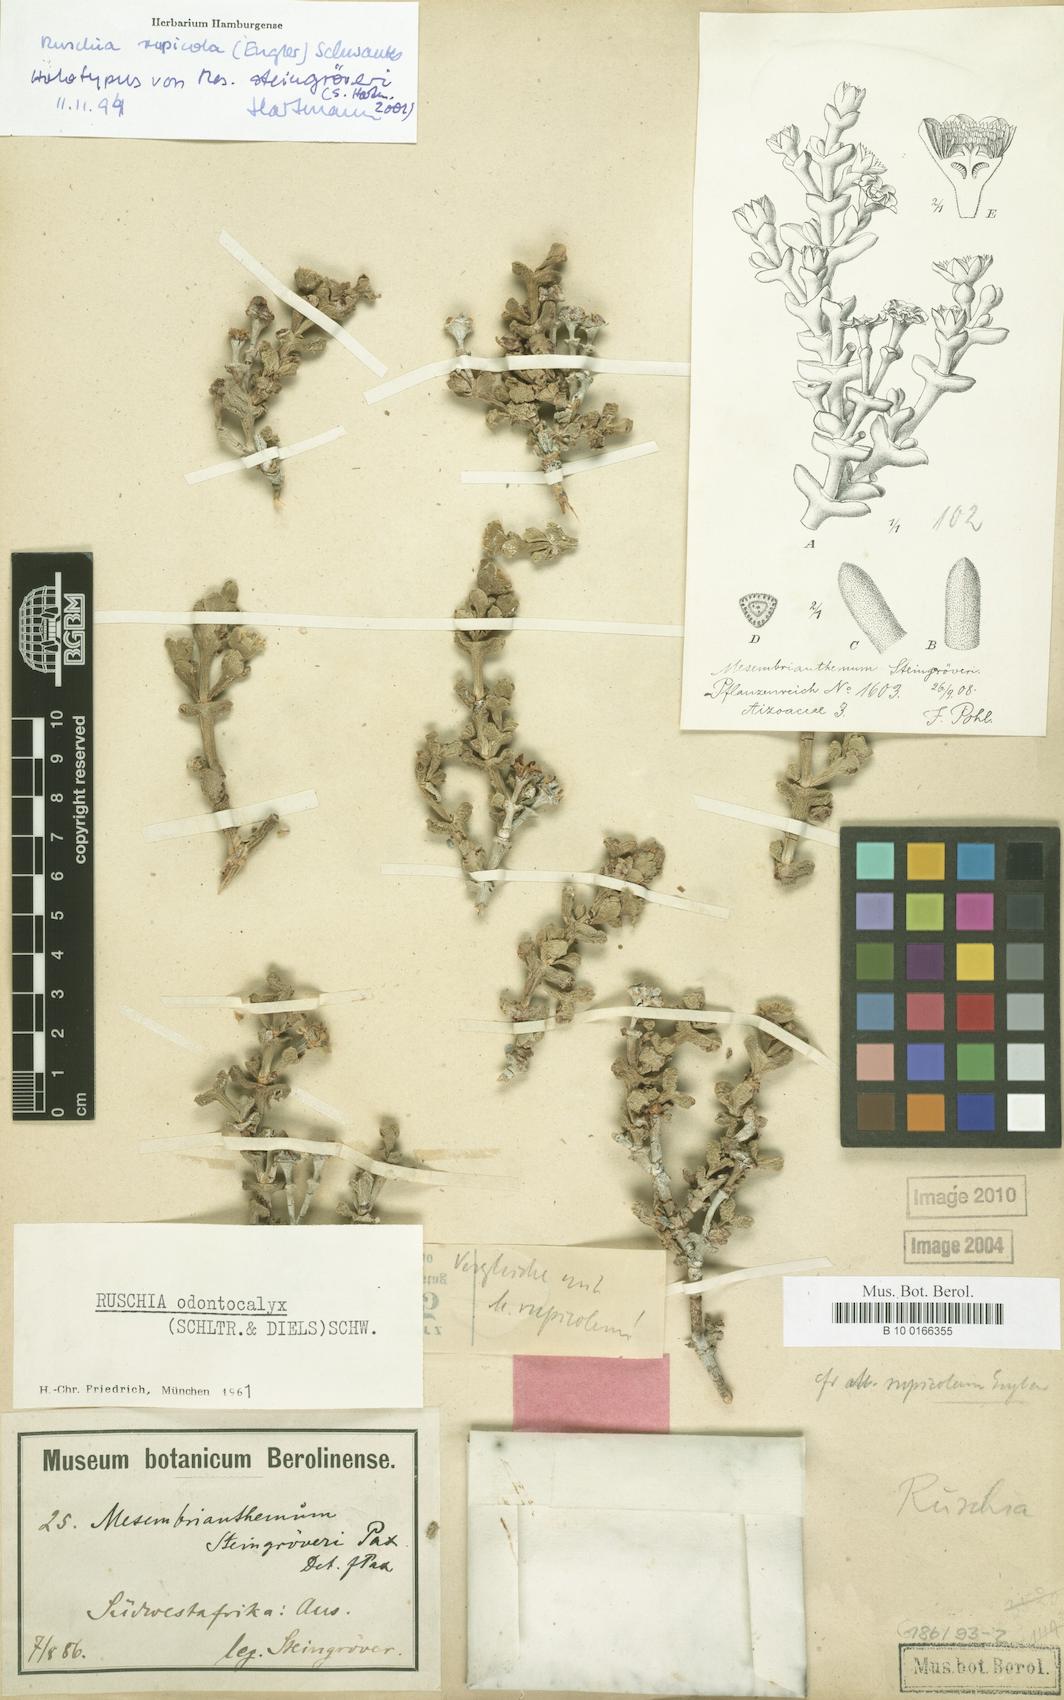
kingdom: Plantae
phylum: Tracheophyta
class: Magnoliopsida
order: Caryophyllales
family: Aizoaceae
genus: Ruschia
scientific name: Ruschia rupicola
